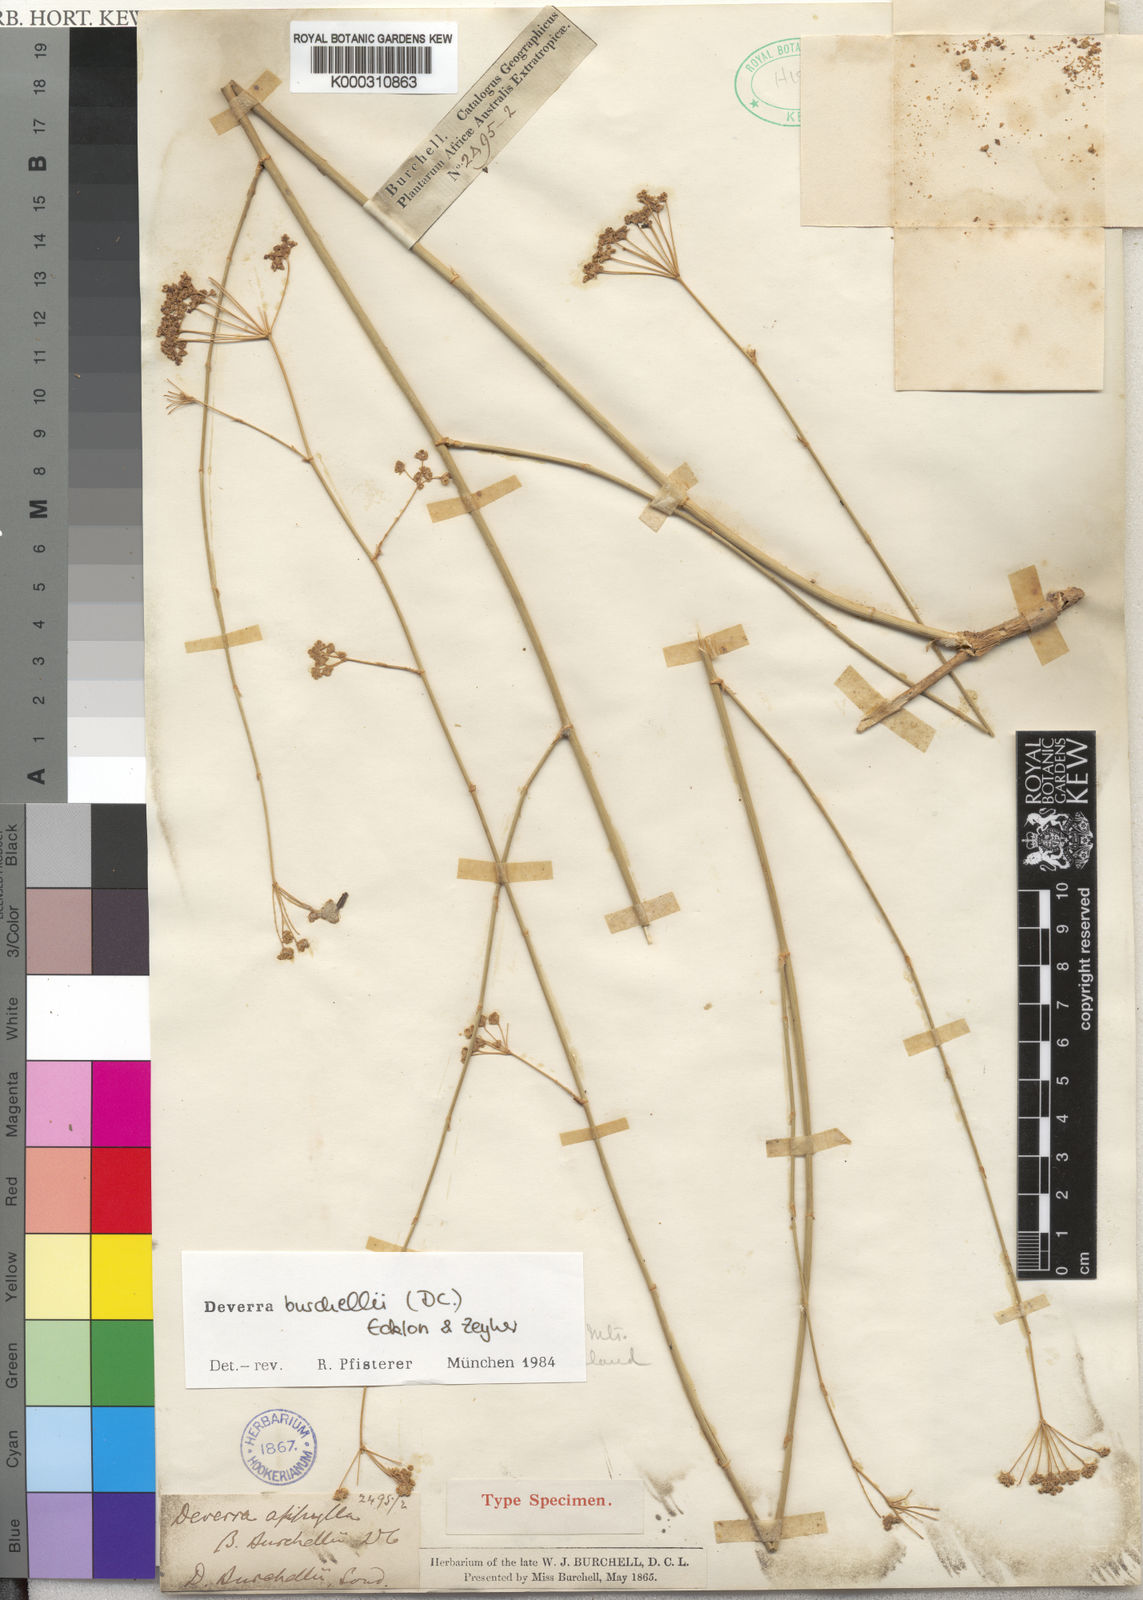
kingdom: Plantae
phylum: Tracheophyta
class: Magnoliopsida
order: Apiales
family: Apiaceae
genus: Deverra
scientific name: Deverra burchellii
